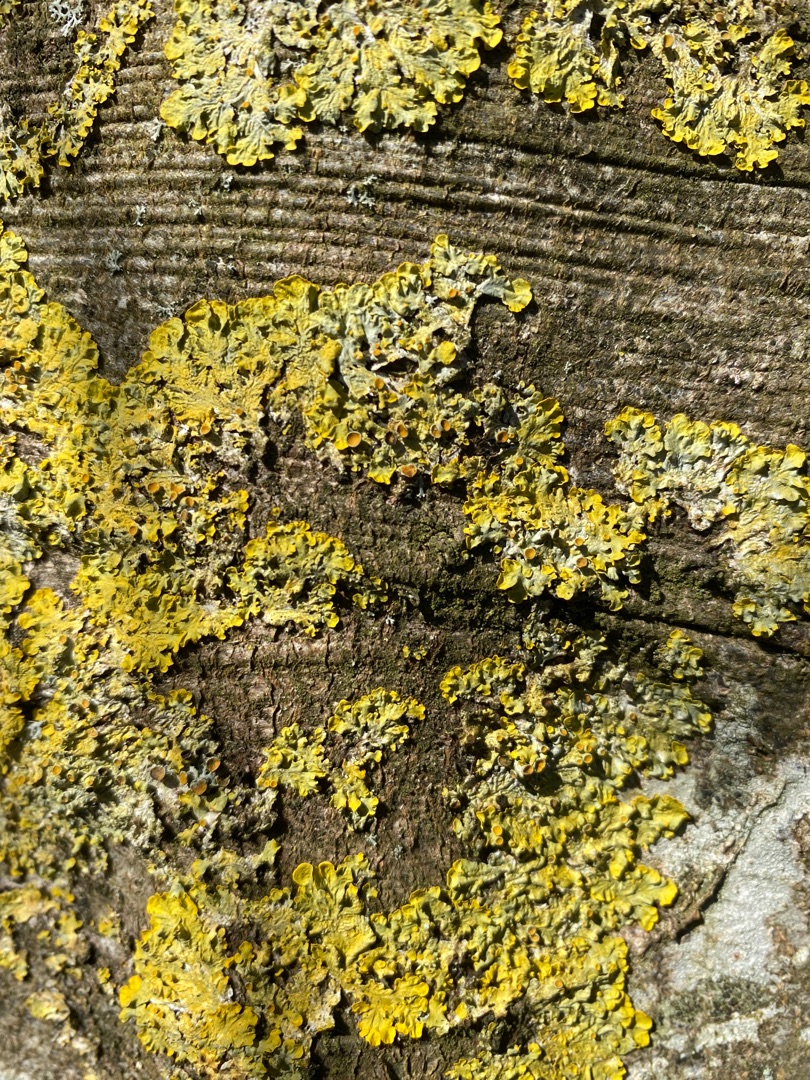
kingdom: Fungi
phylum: Ascomycota
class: Lecanoromycetes
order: Teloschistales
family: Teloschistaceae
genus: Xanthoria
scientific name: Xanthoria parietina
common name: Almindelig væggelav
